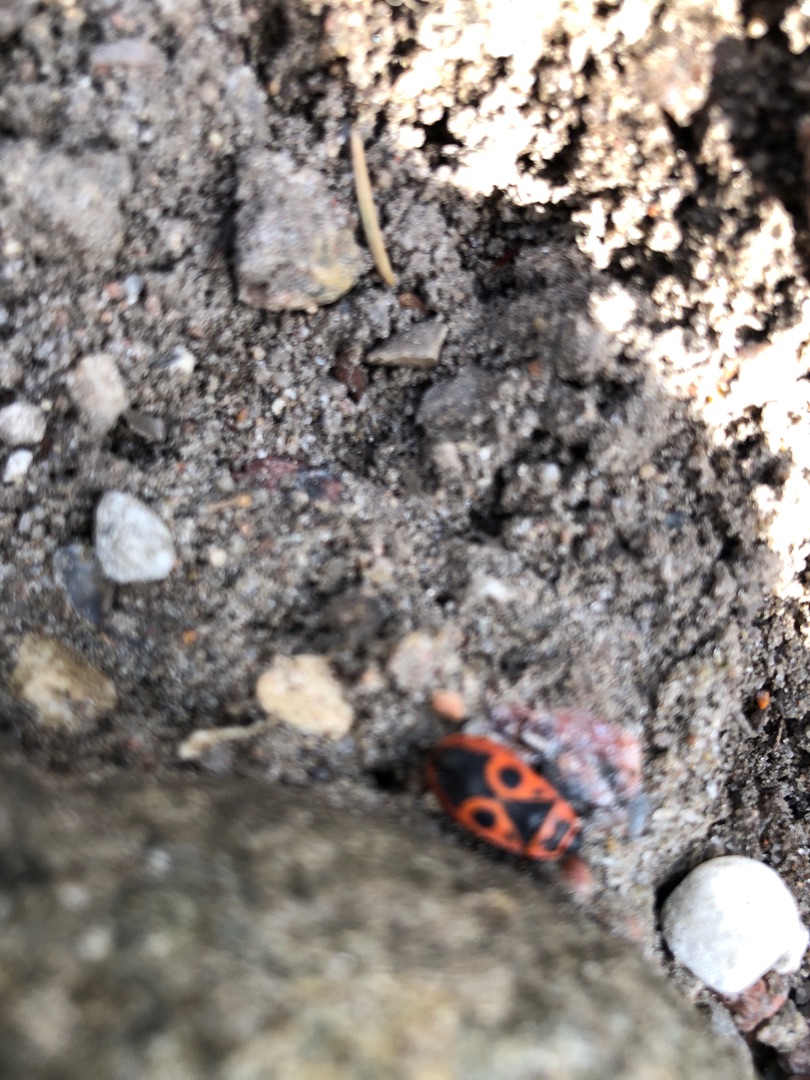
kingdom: Animalia
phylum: Arthropoda
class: Insecta
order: Hemiptera
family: Pyrrhocoridae
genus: Pyrrhocoris
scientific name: Pyrrhocoris apterus
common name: Ildtæge
